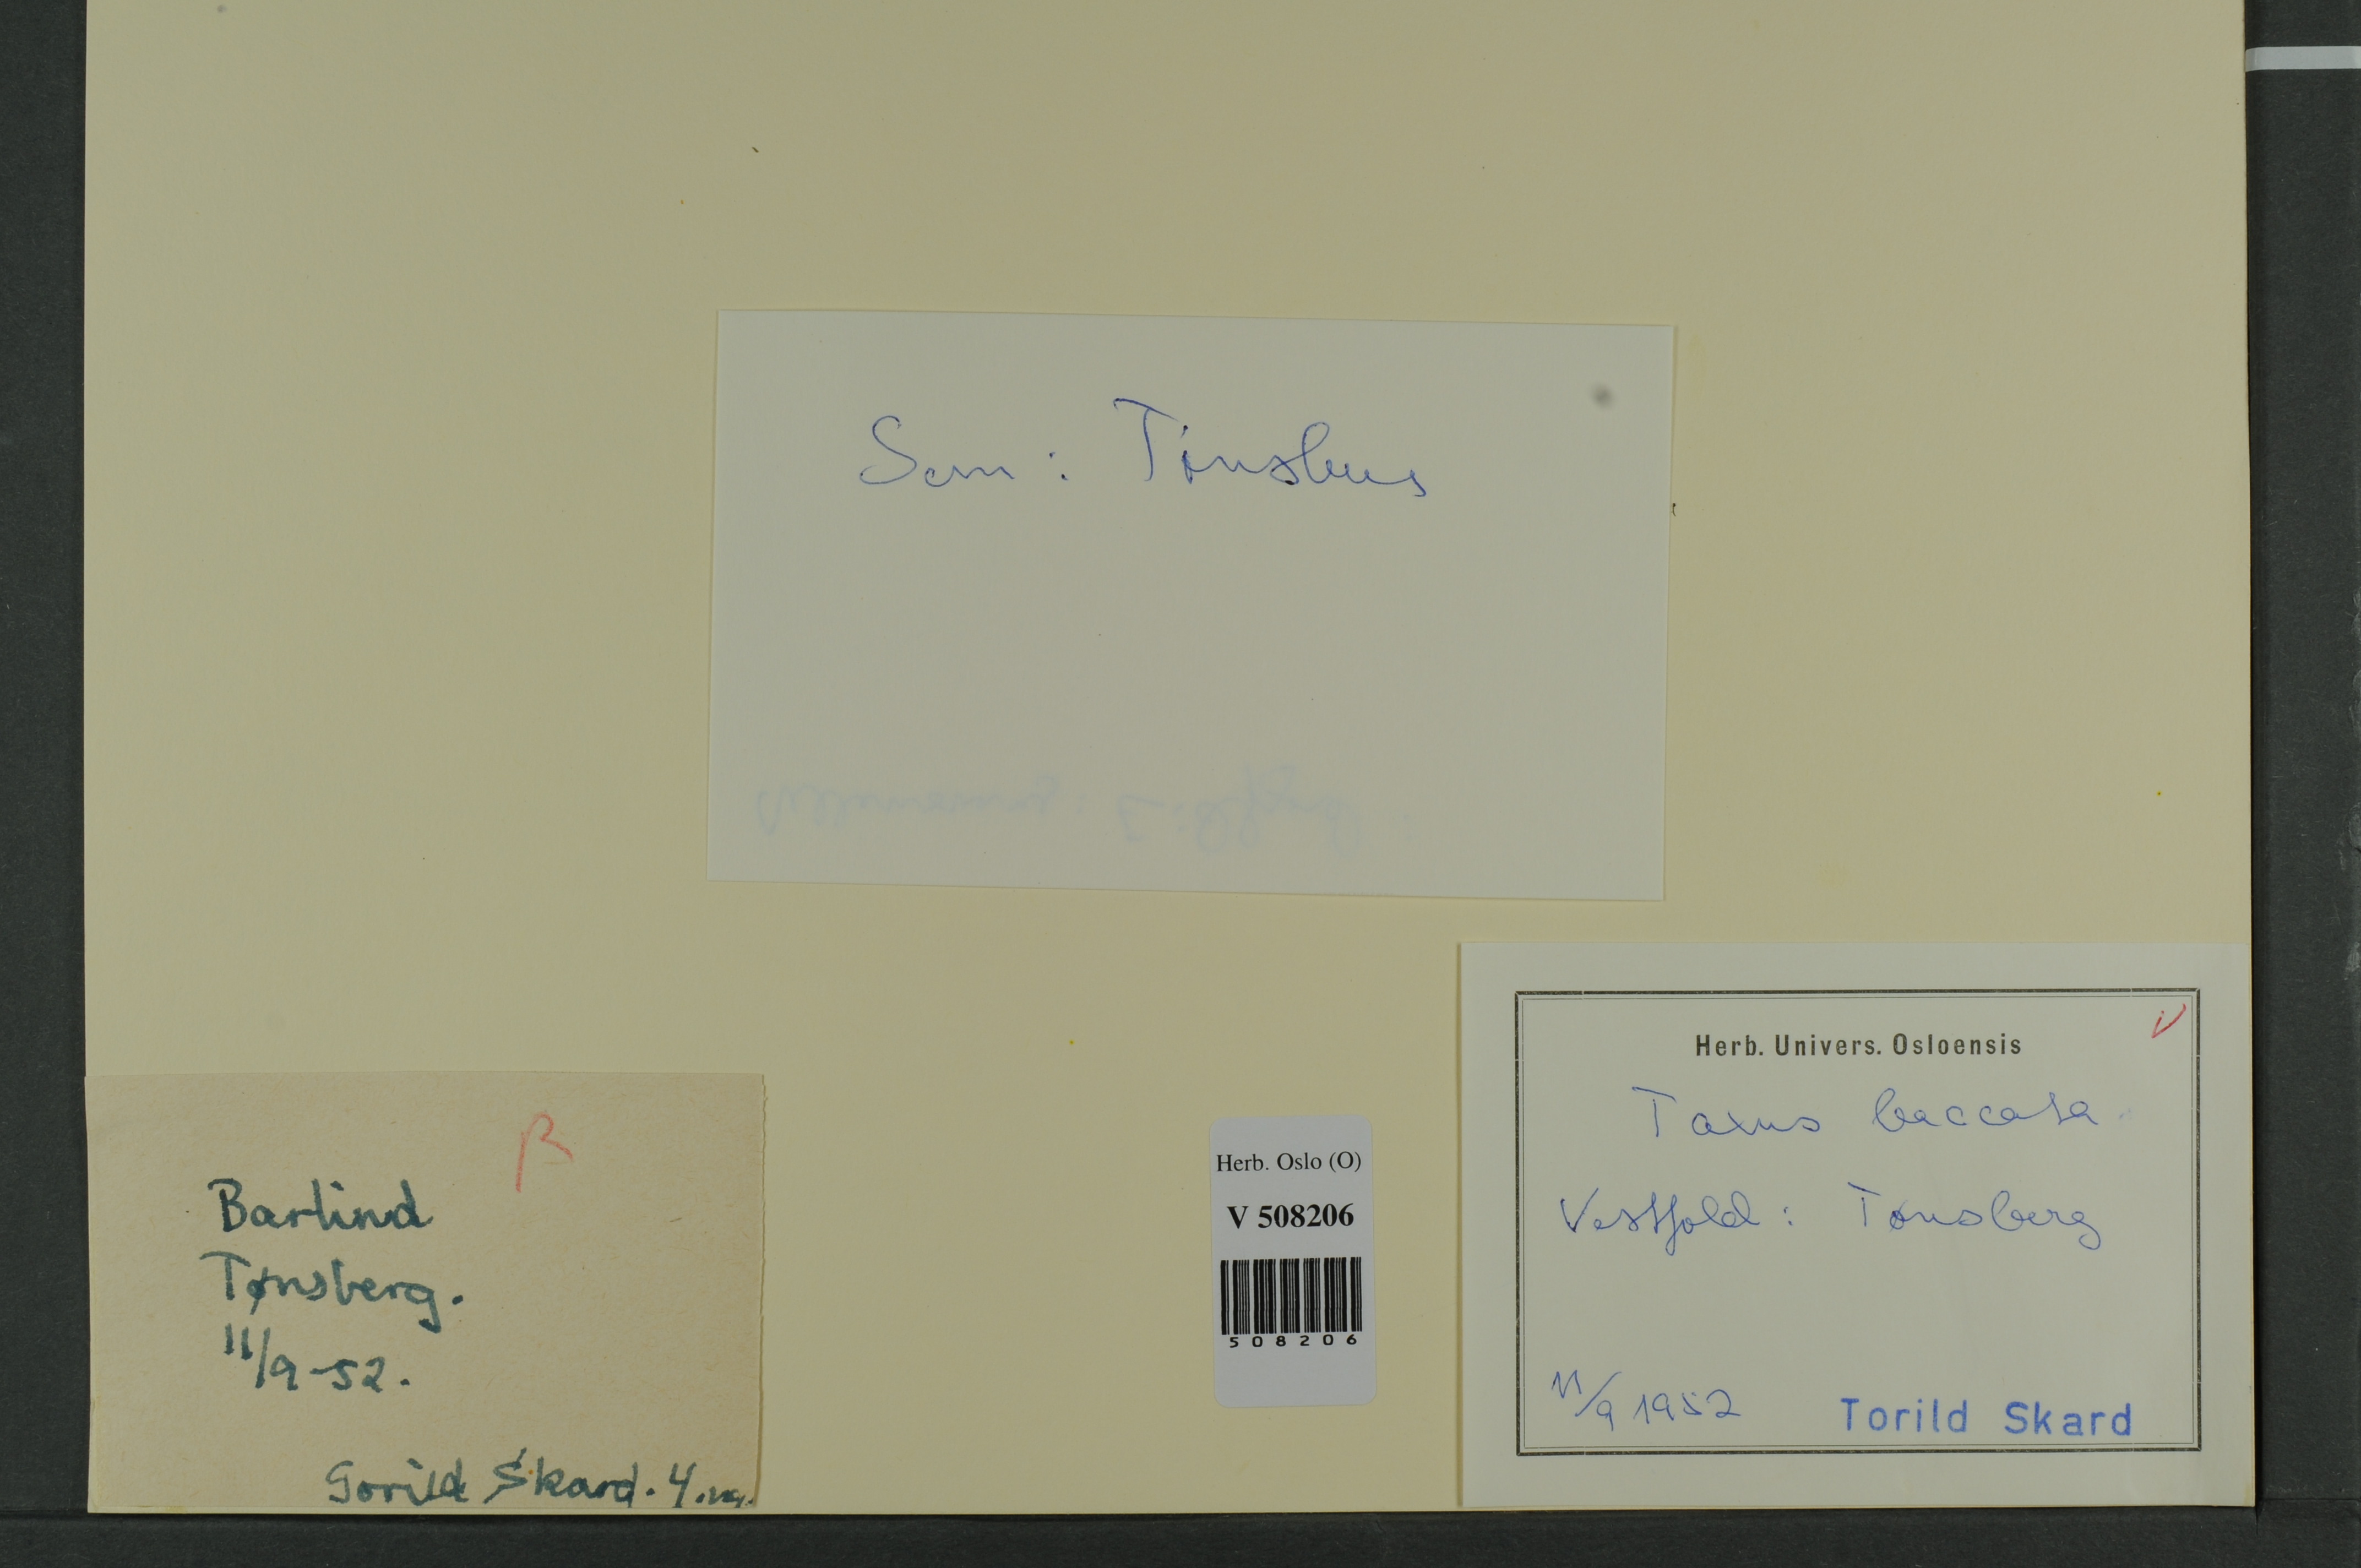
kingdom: Plantae
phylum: Tracheophyta
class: Pinopsida
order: Pinales
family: Taxaceae
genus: Taxus
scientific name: Taxus baccata
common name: Yew
